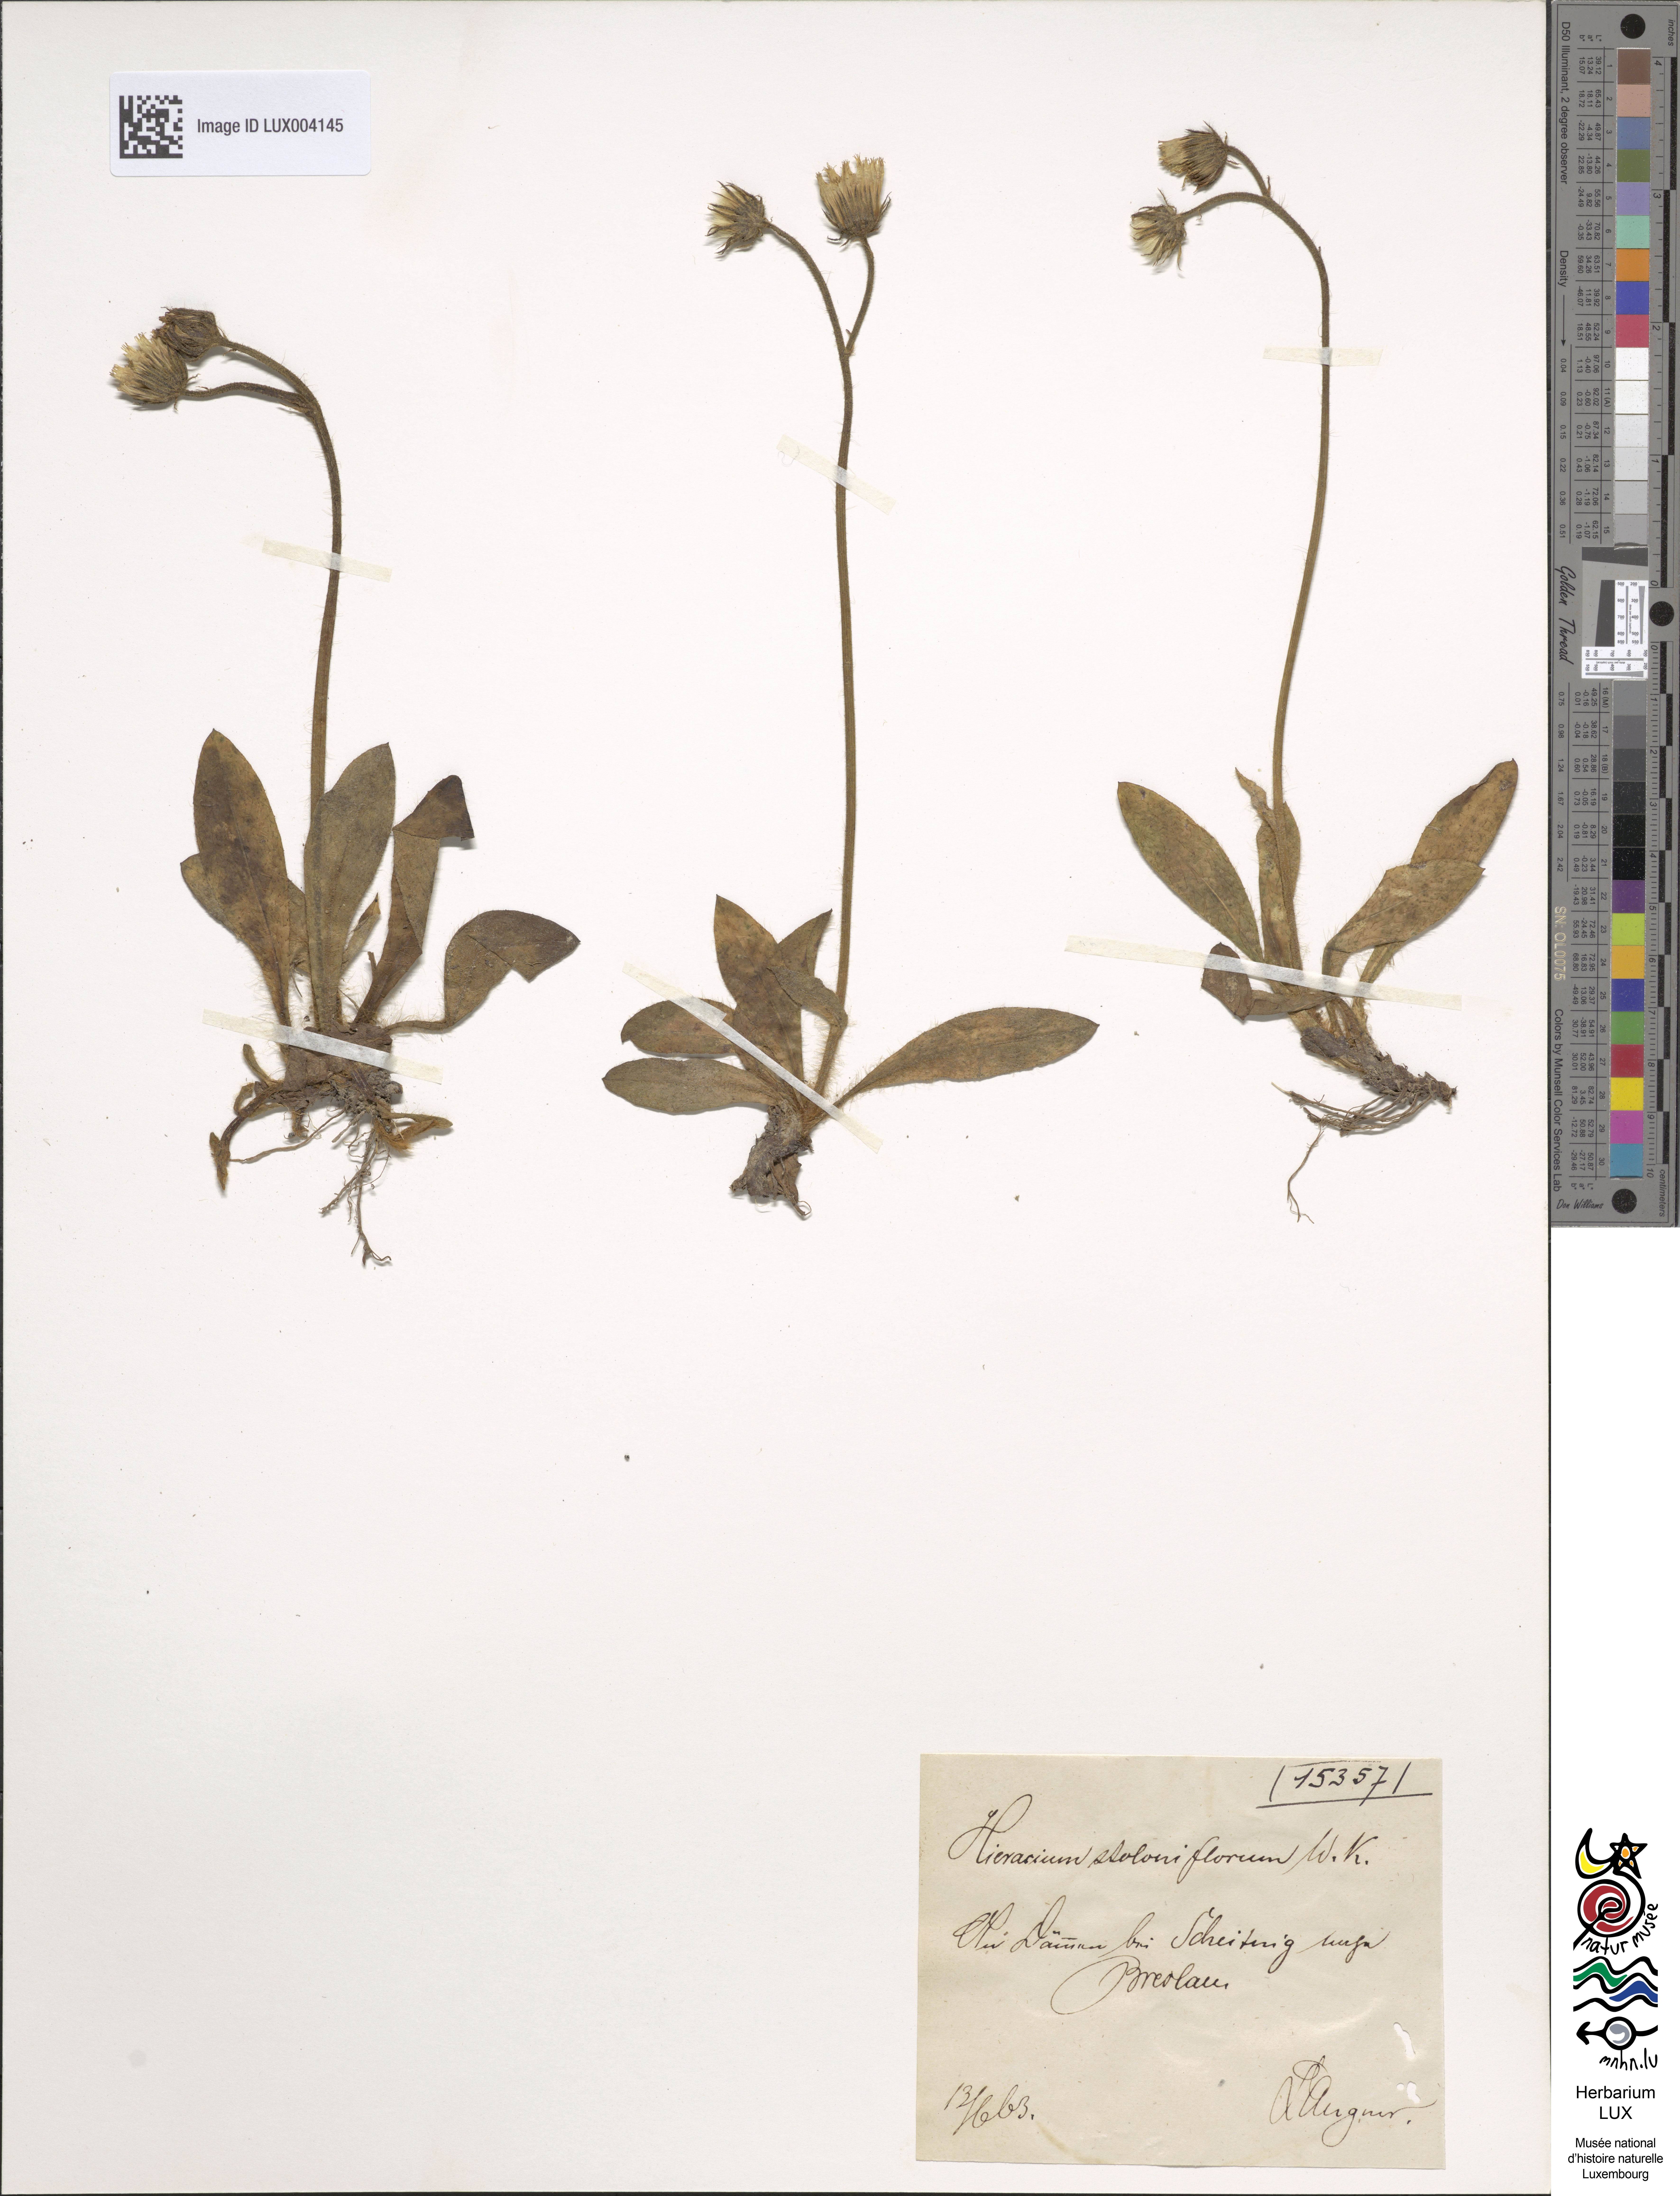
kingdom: Plantae
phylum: Tracheophyta
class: Magnoliopsida
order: Asterales
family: Asteraceae
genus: Pilosella
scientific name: Pilosella stoloniflora
